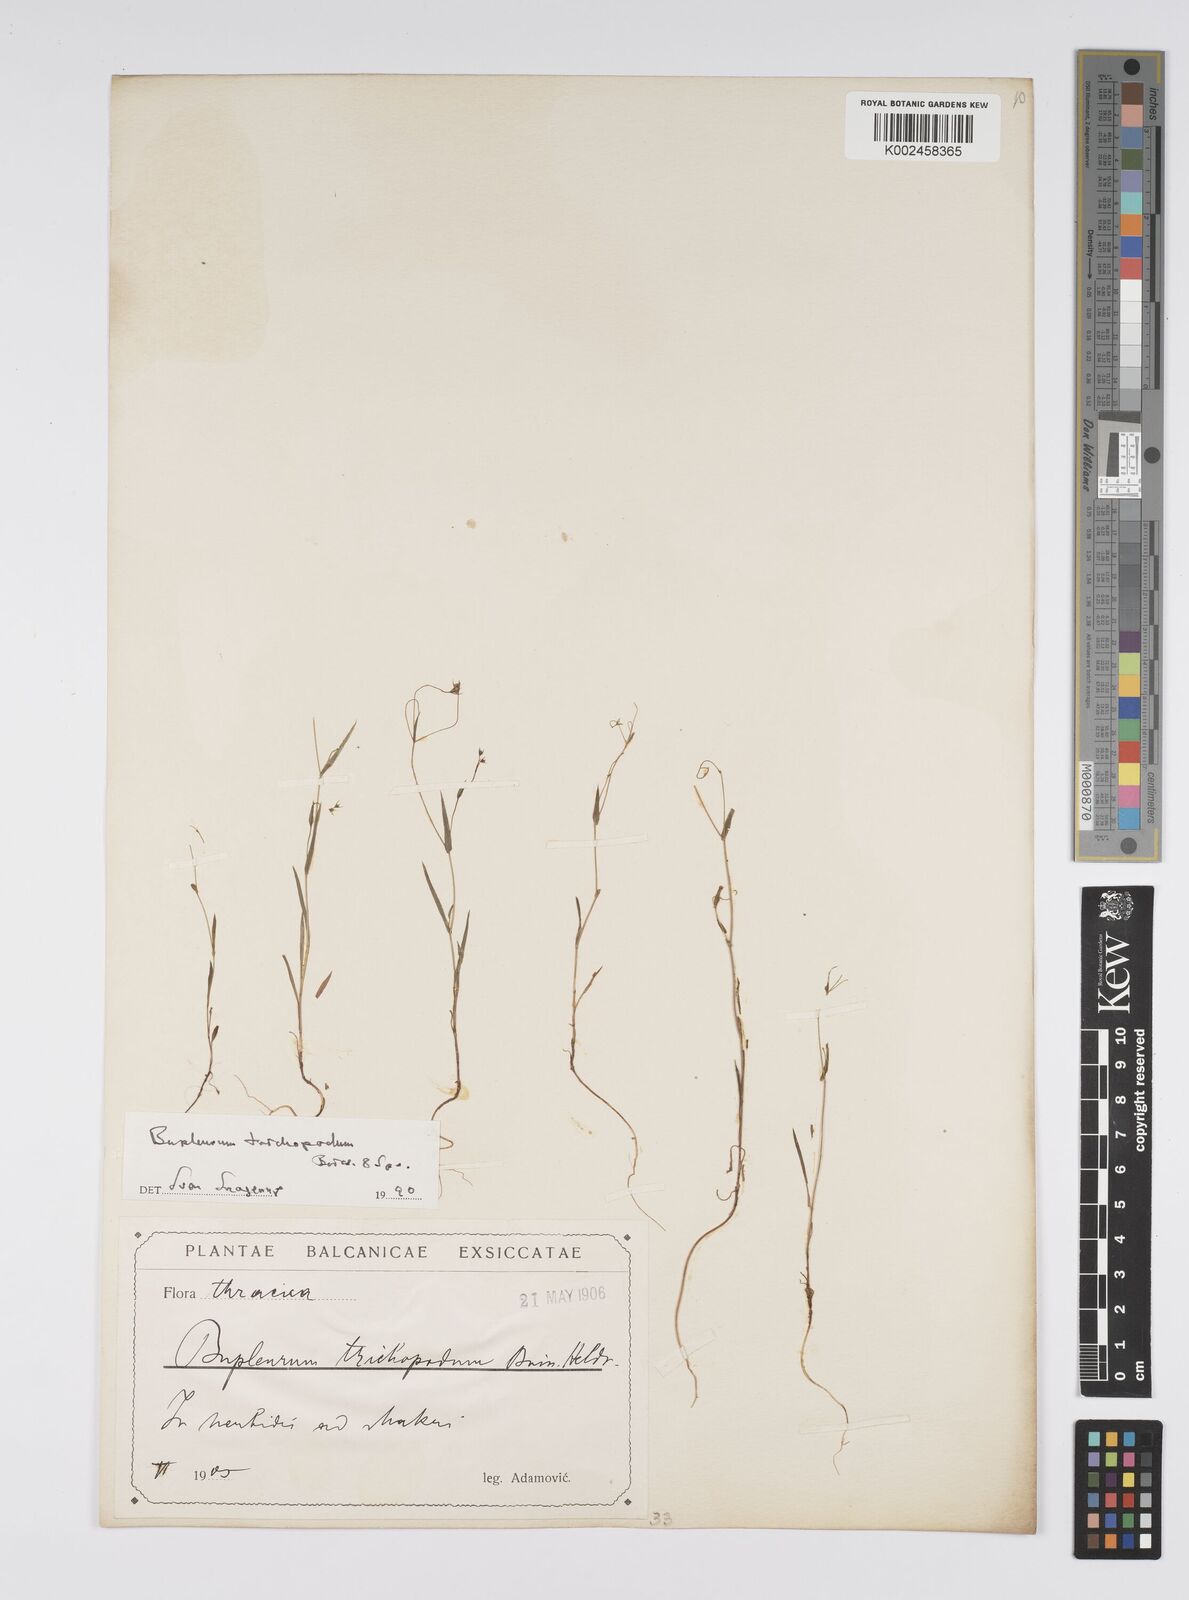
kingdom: Plantae
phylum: Tracheophyta
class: Magnoliopsida
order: Apiales
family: Apiaceae
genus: Bupleurum
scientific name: Bupleurum trichopodum
